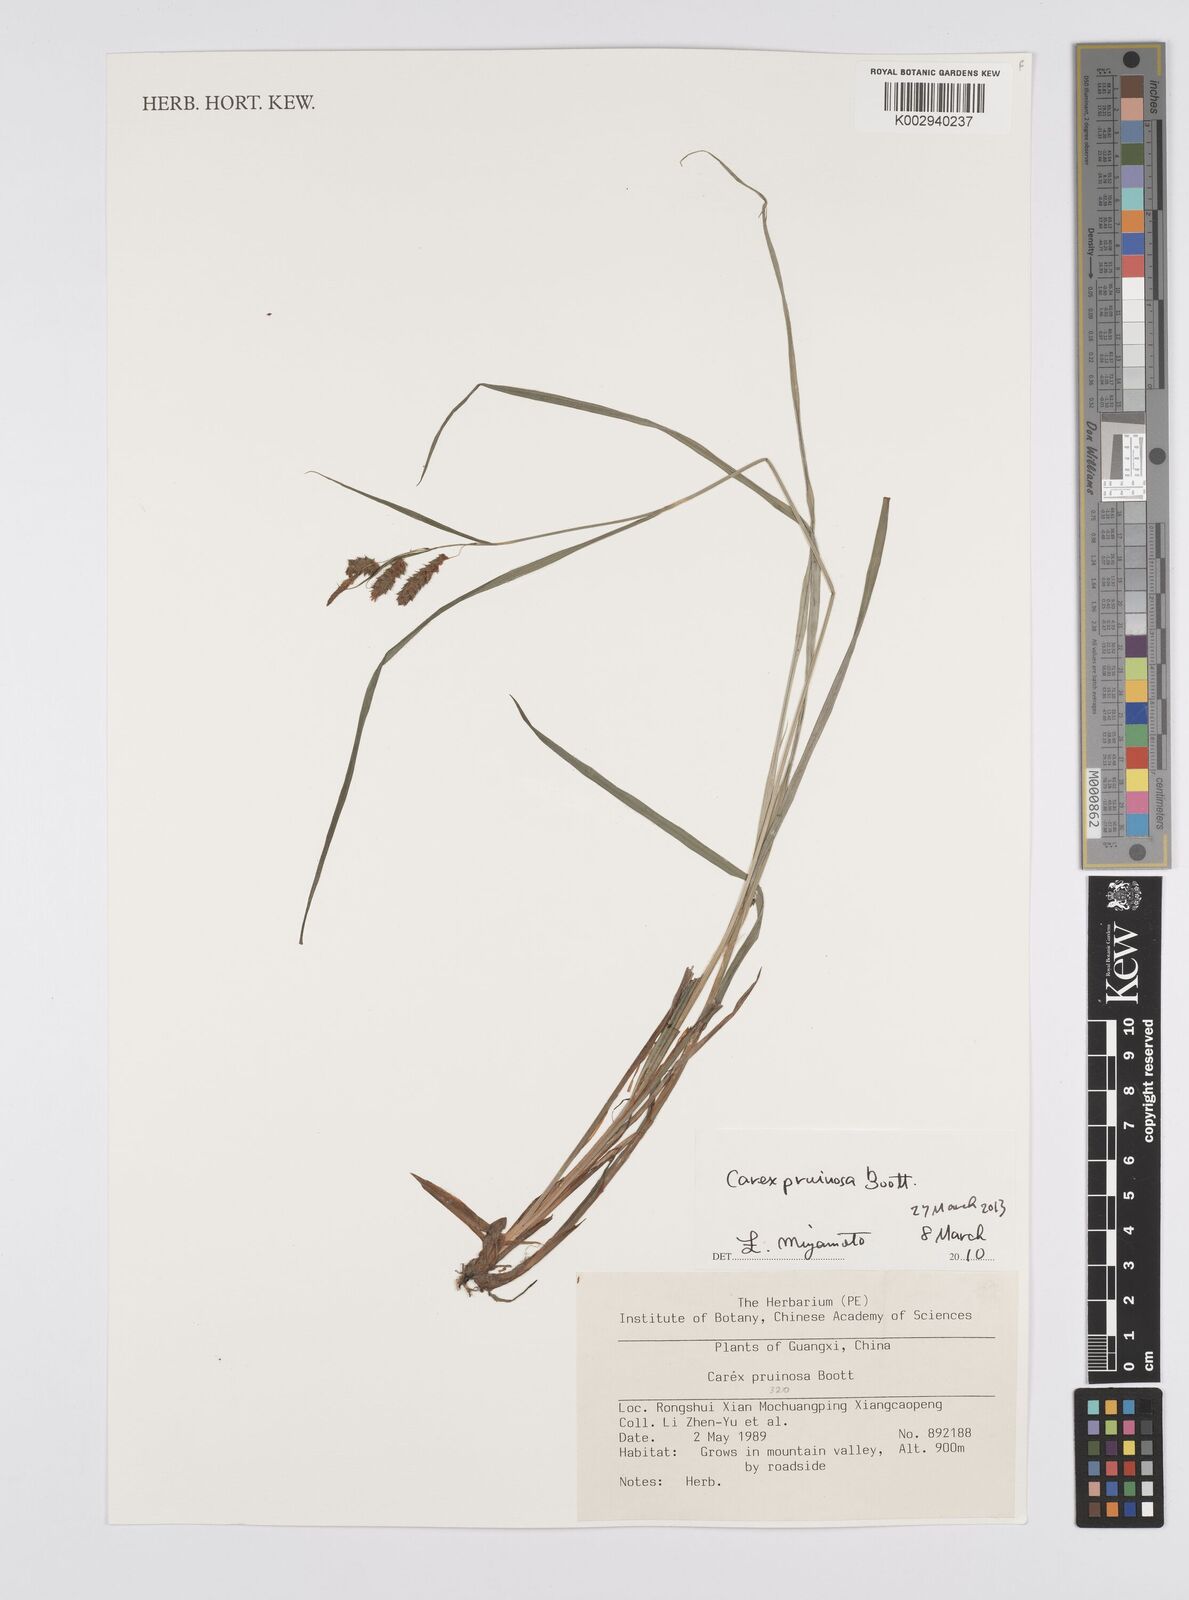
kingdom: Plantae
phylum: Tracheophyta
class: Liliopsida
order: Poales
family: Cyperaceae
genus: Carex
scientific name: Carex pruinosa
